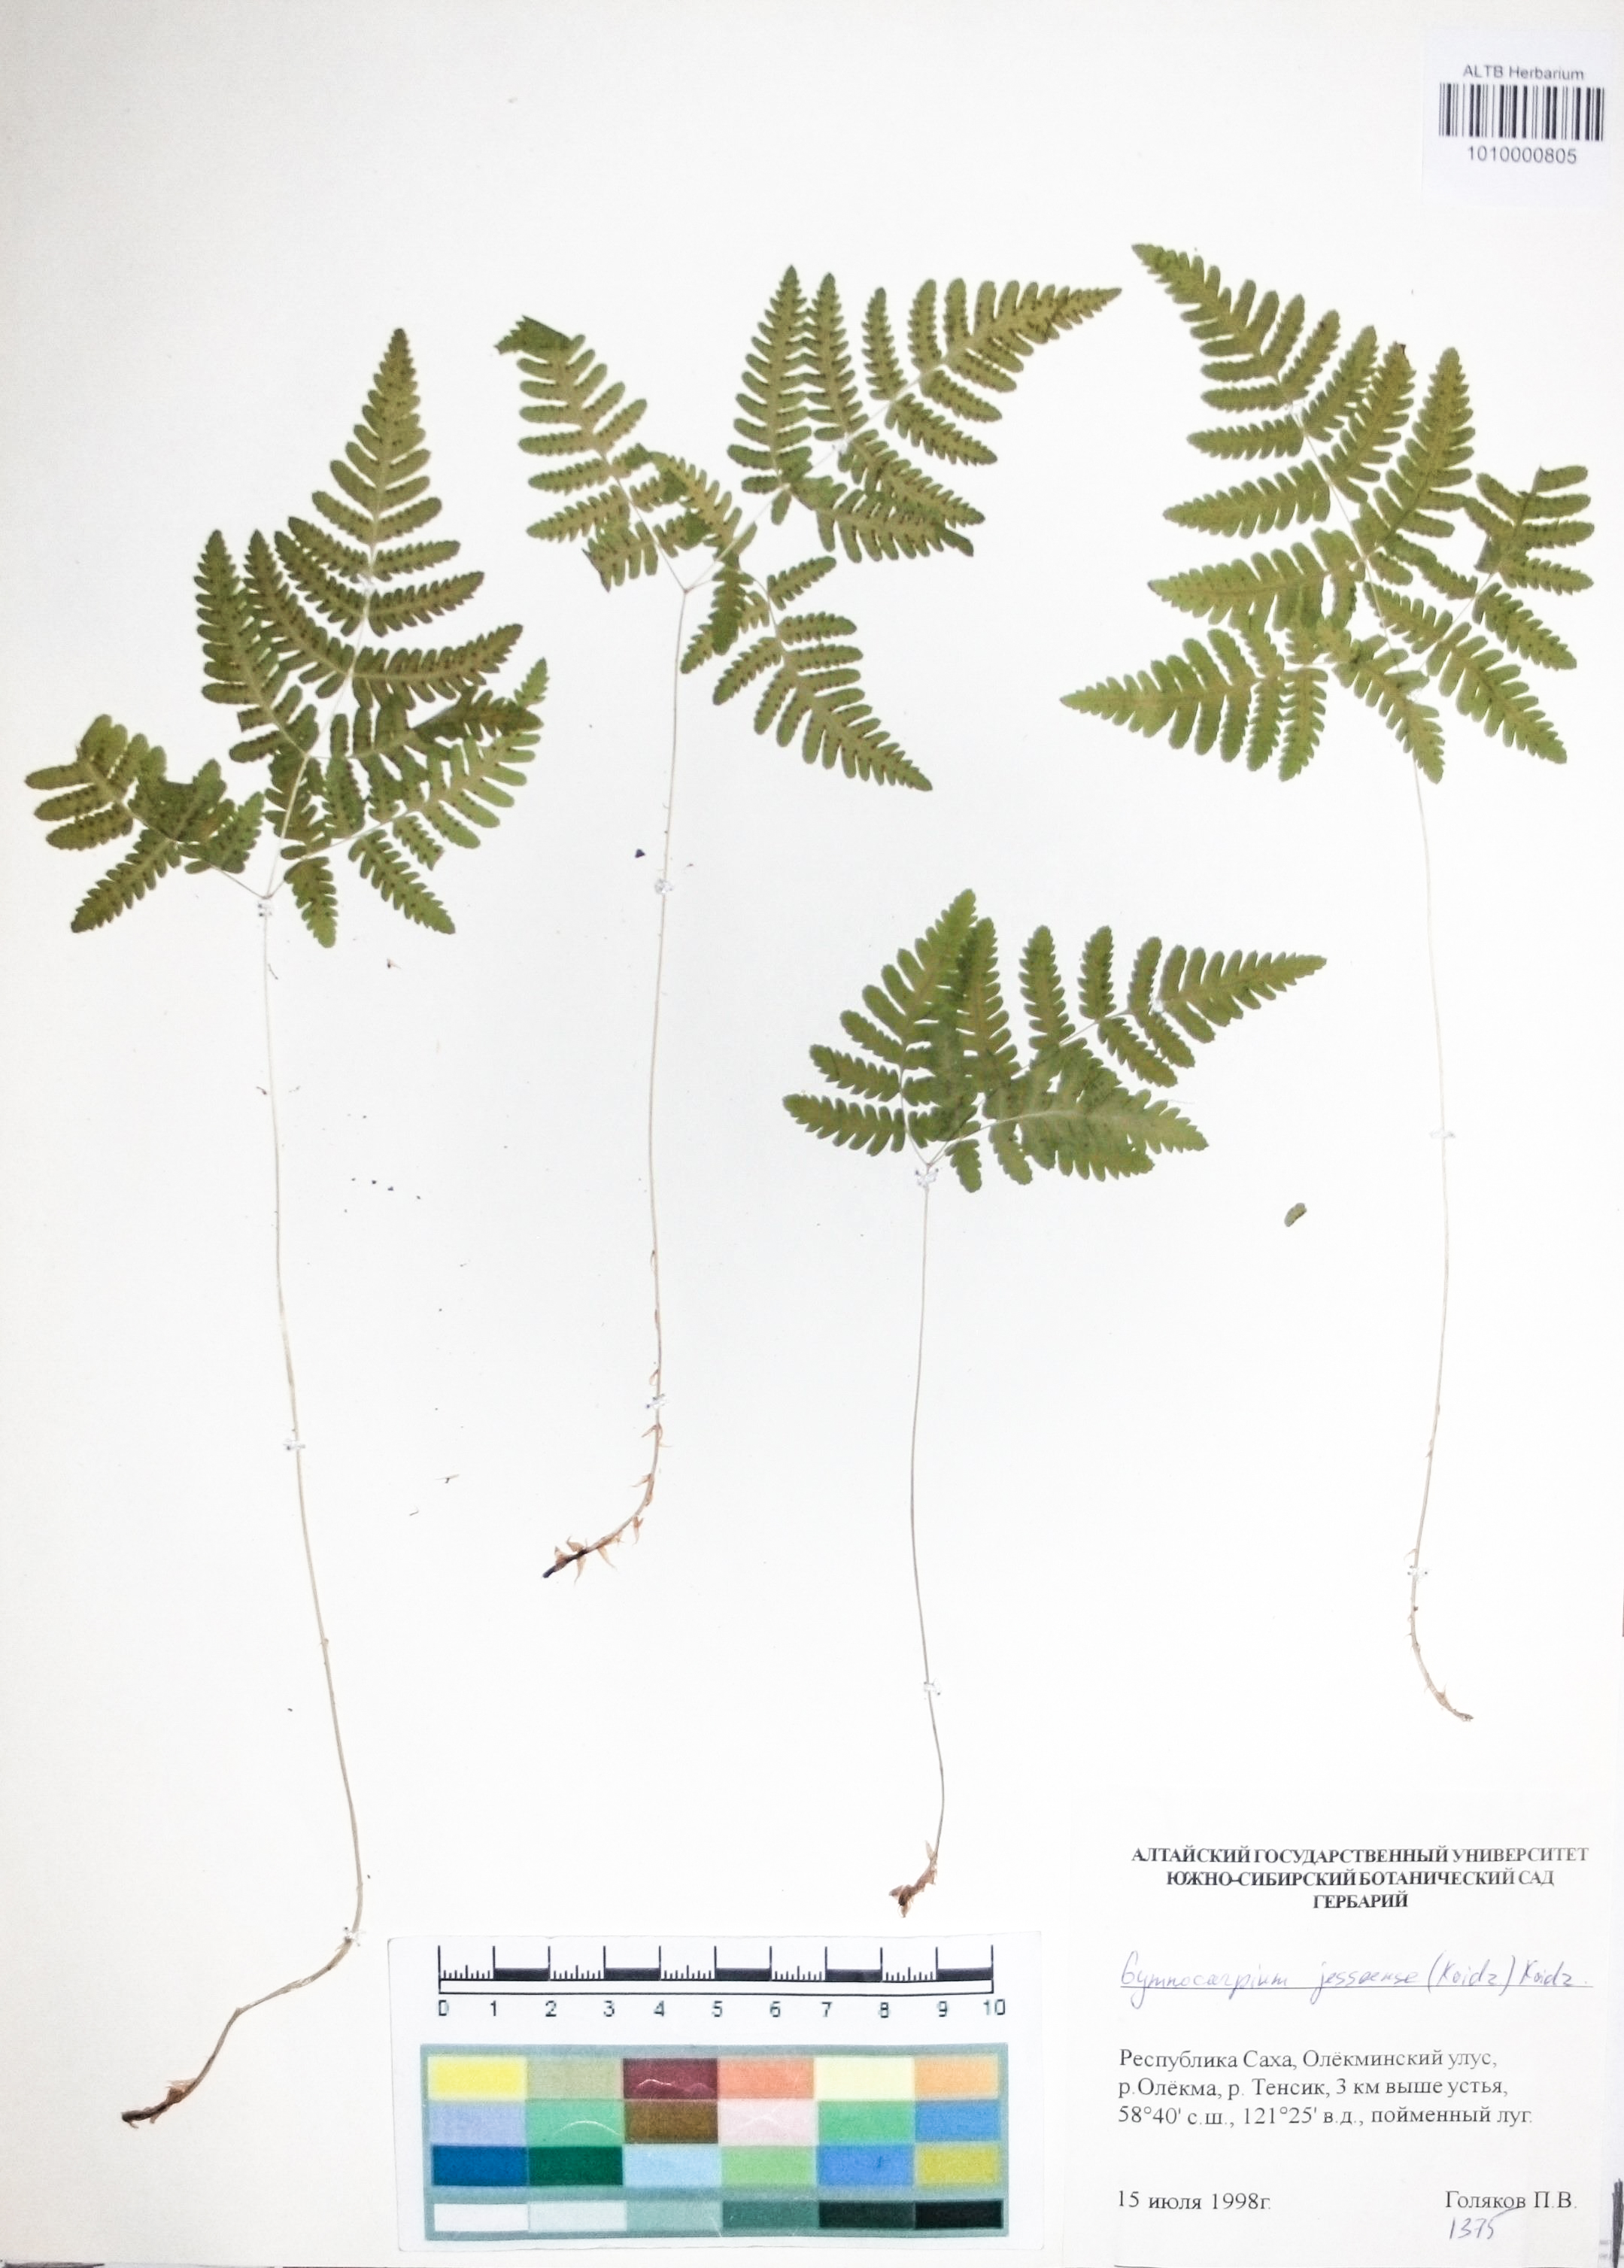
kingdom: Plantae
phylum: Tracheophyta
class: Polypodiopsida
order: Polypodiales
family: Cystopteridaceae
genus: Gymnocarpium
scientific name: Gymnocarpium jessoense
